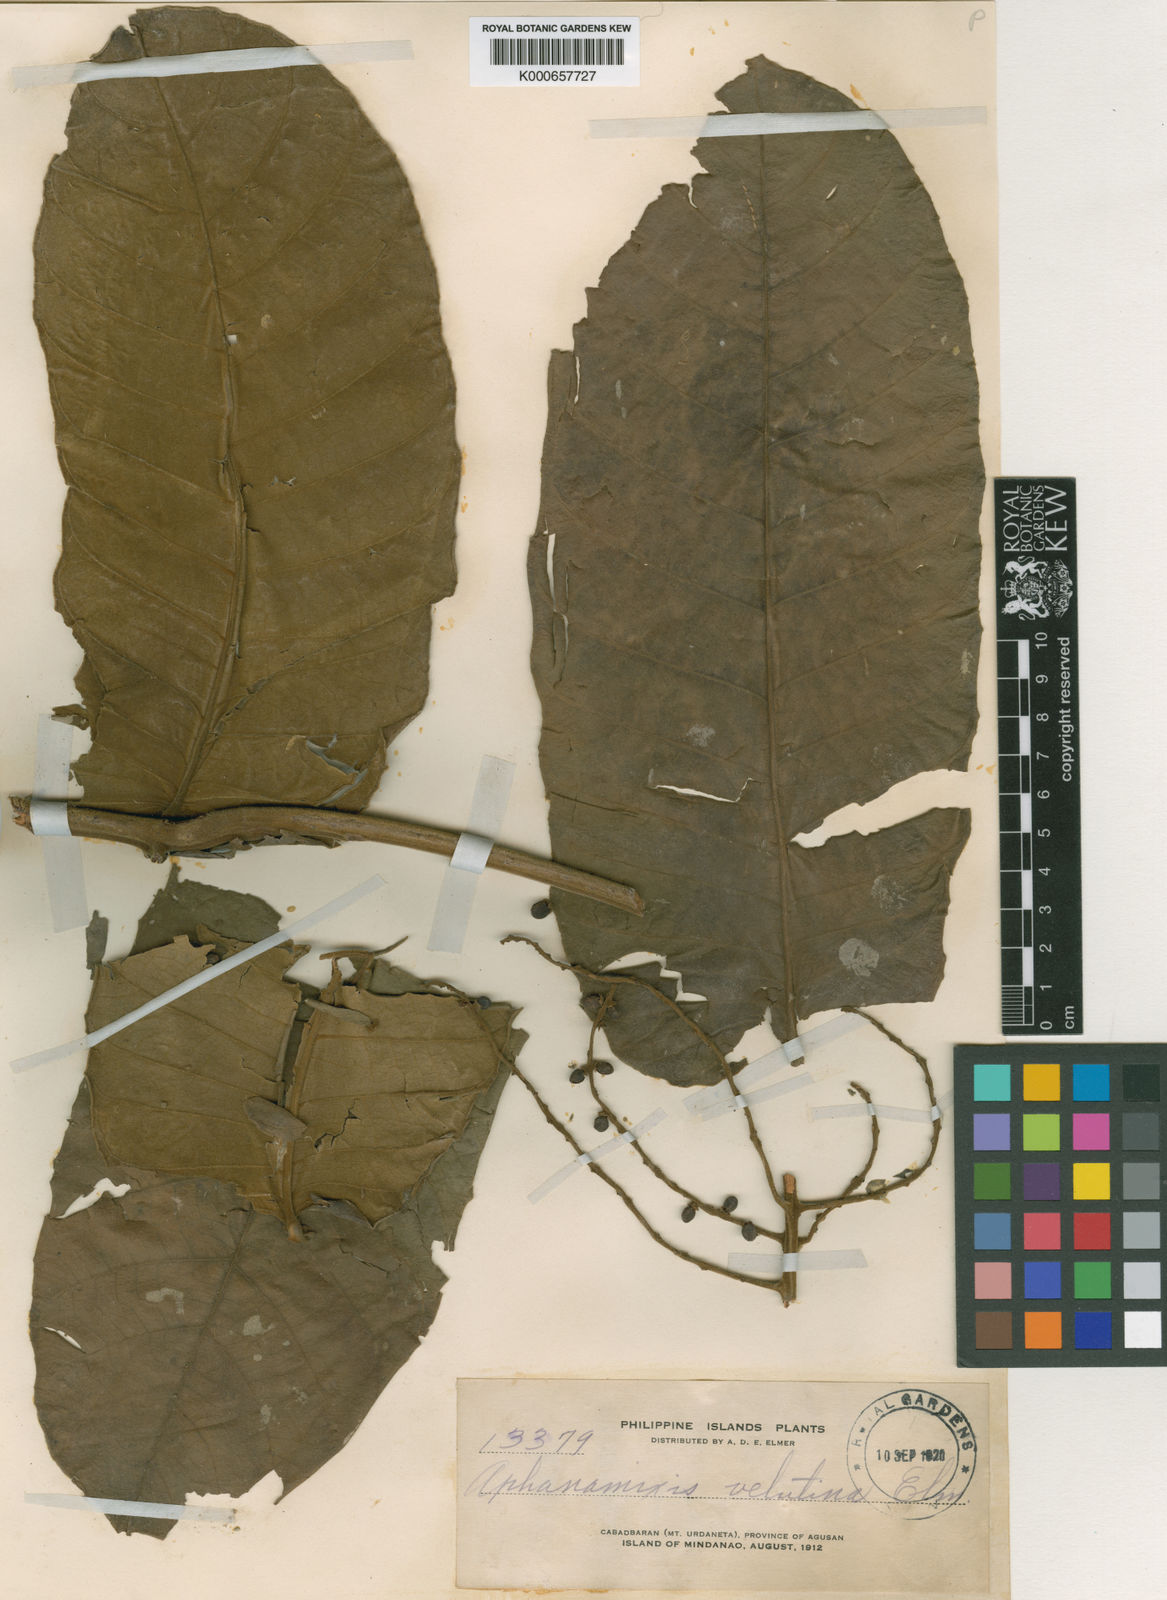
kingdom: Plantae
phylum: Tracheophyta
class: Magnoliopsida
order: Sapindales
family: Meliaceae
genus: Aphanamixis
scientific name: Aphanamixis polystachya
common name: Pithraj tree
